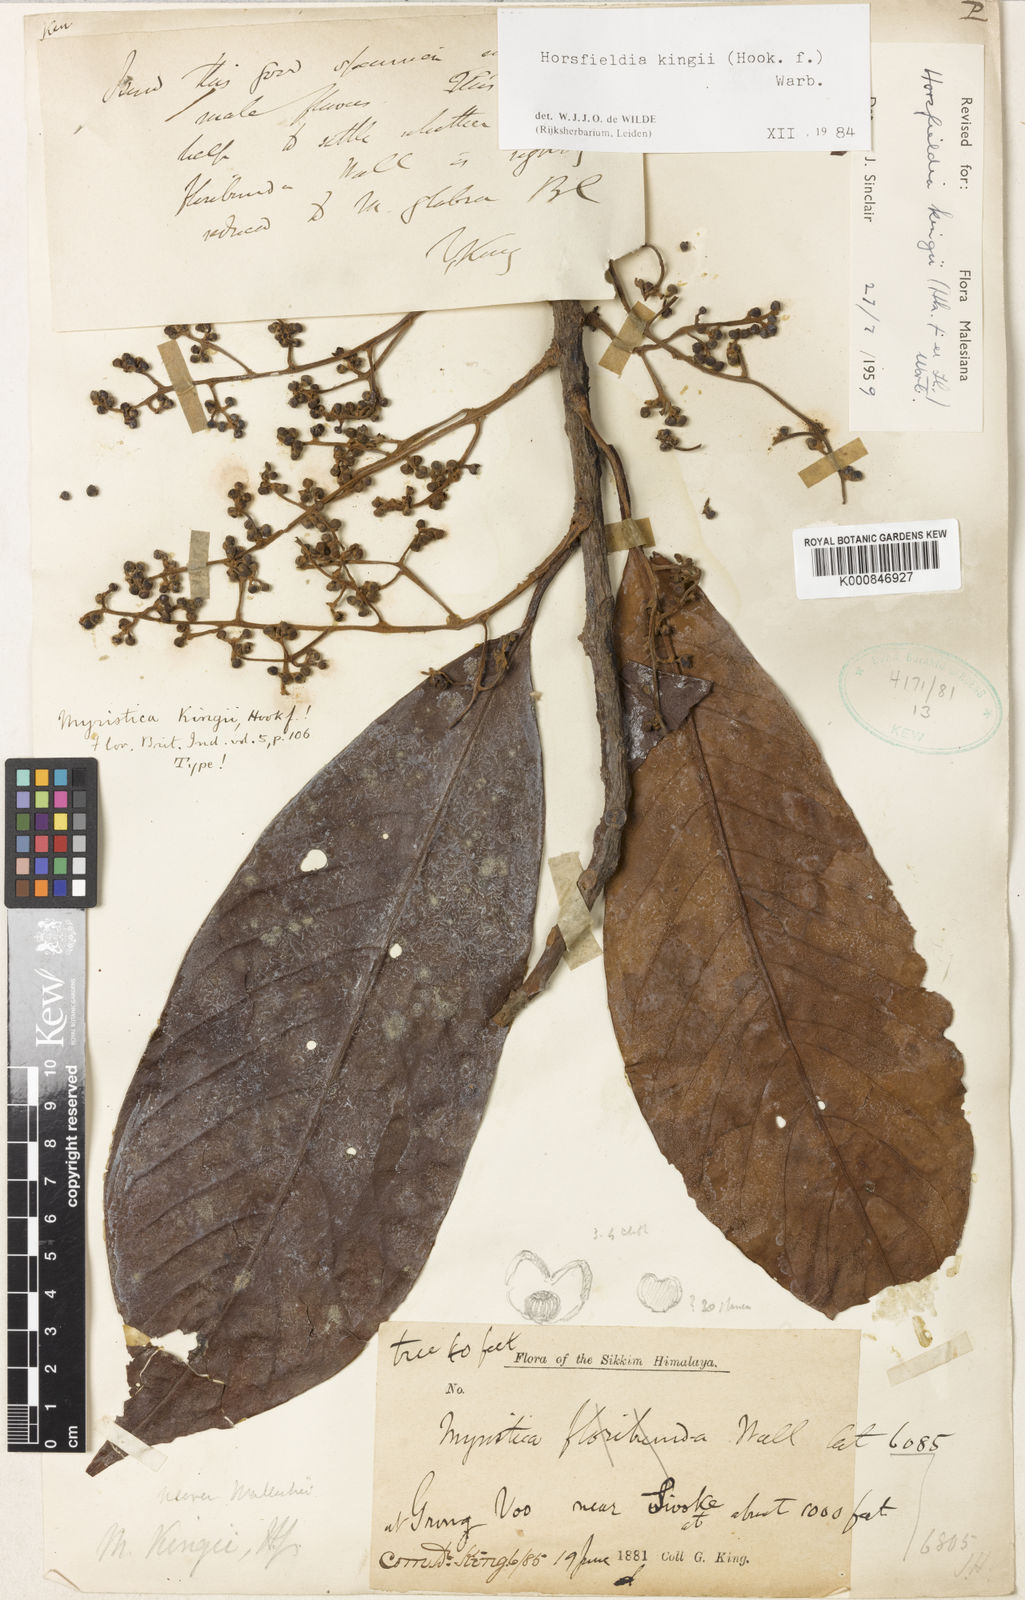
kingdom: Plantae
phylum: Tracheophyta
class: Magnoliopsida
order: Magnoliales
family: Myristicaceae
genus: Horsfieldia
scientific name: Horsfieldia kingii
